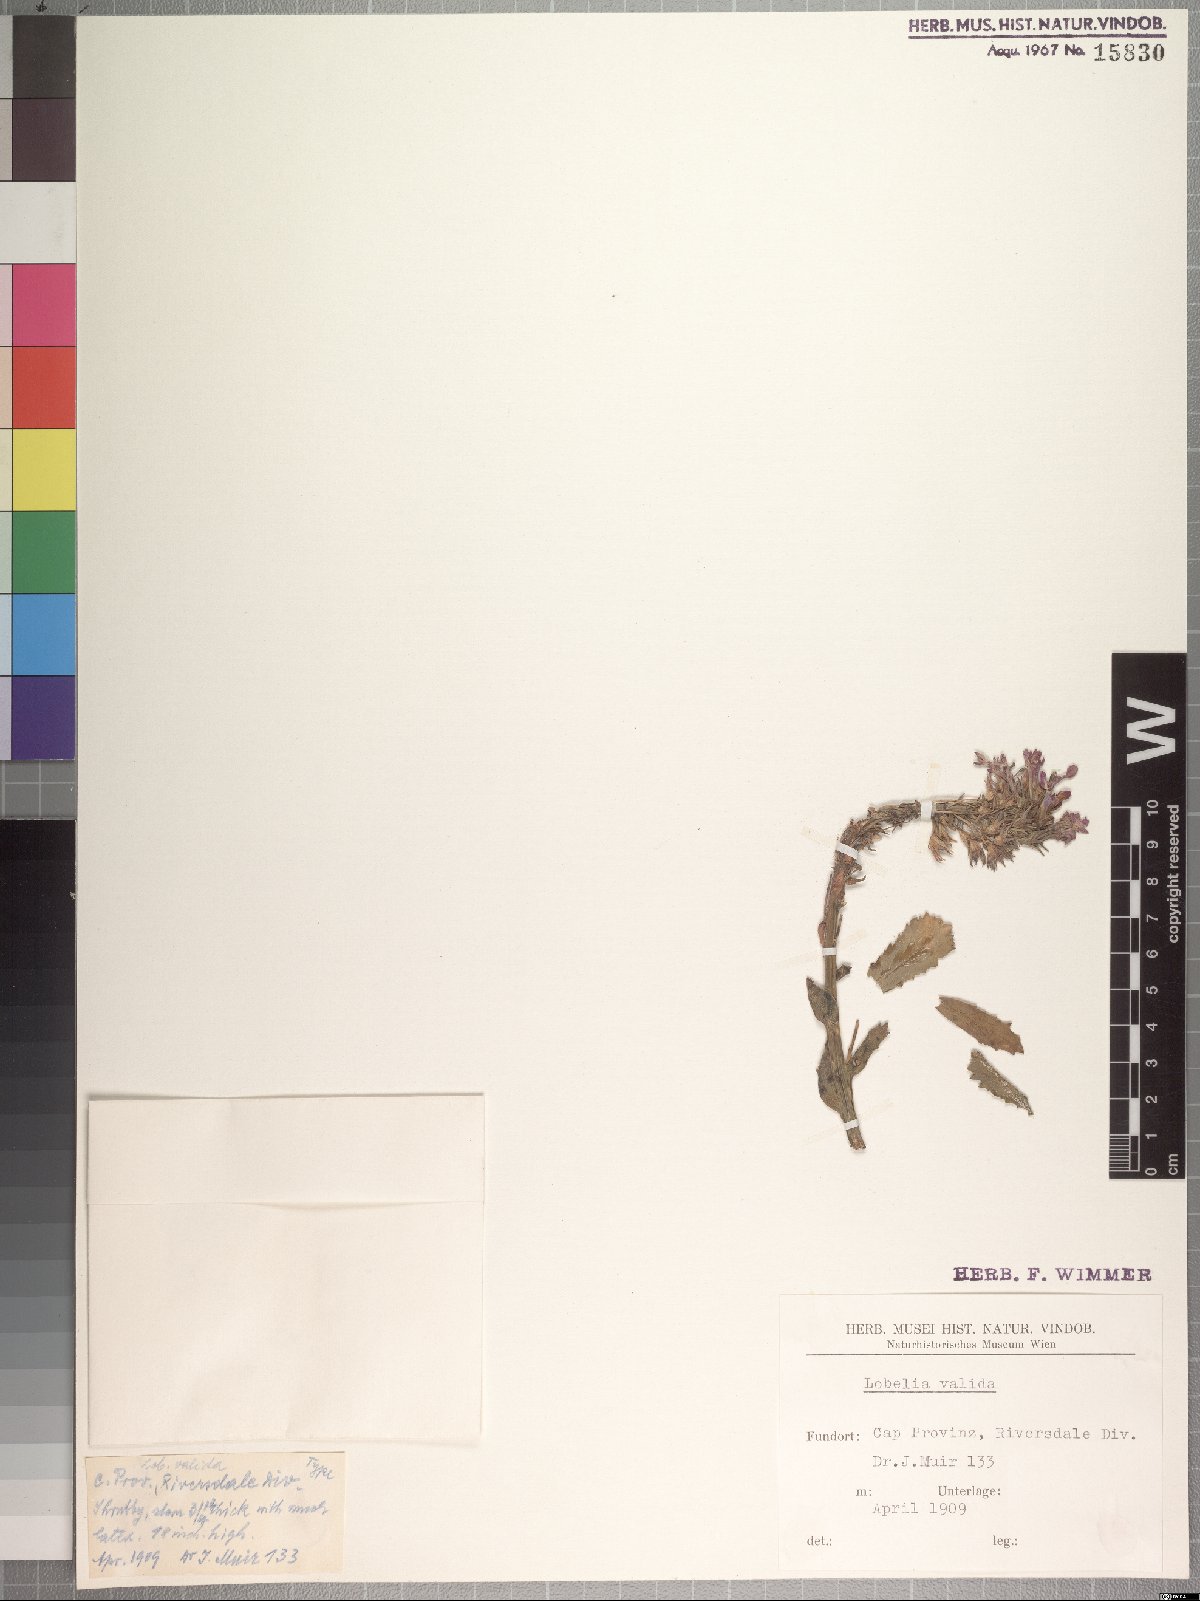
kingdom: Plantae
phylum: Tracheophyta
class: Magnoliopsida
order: Asterales
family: Campanulaceae
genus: Lobelia
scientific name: Lobelia valida
